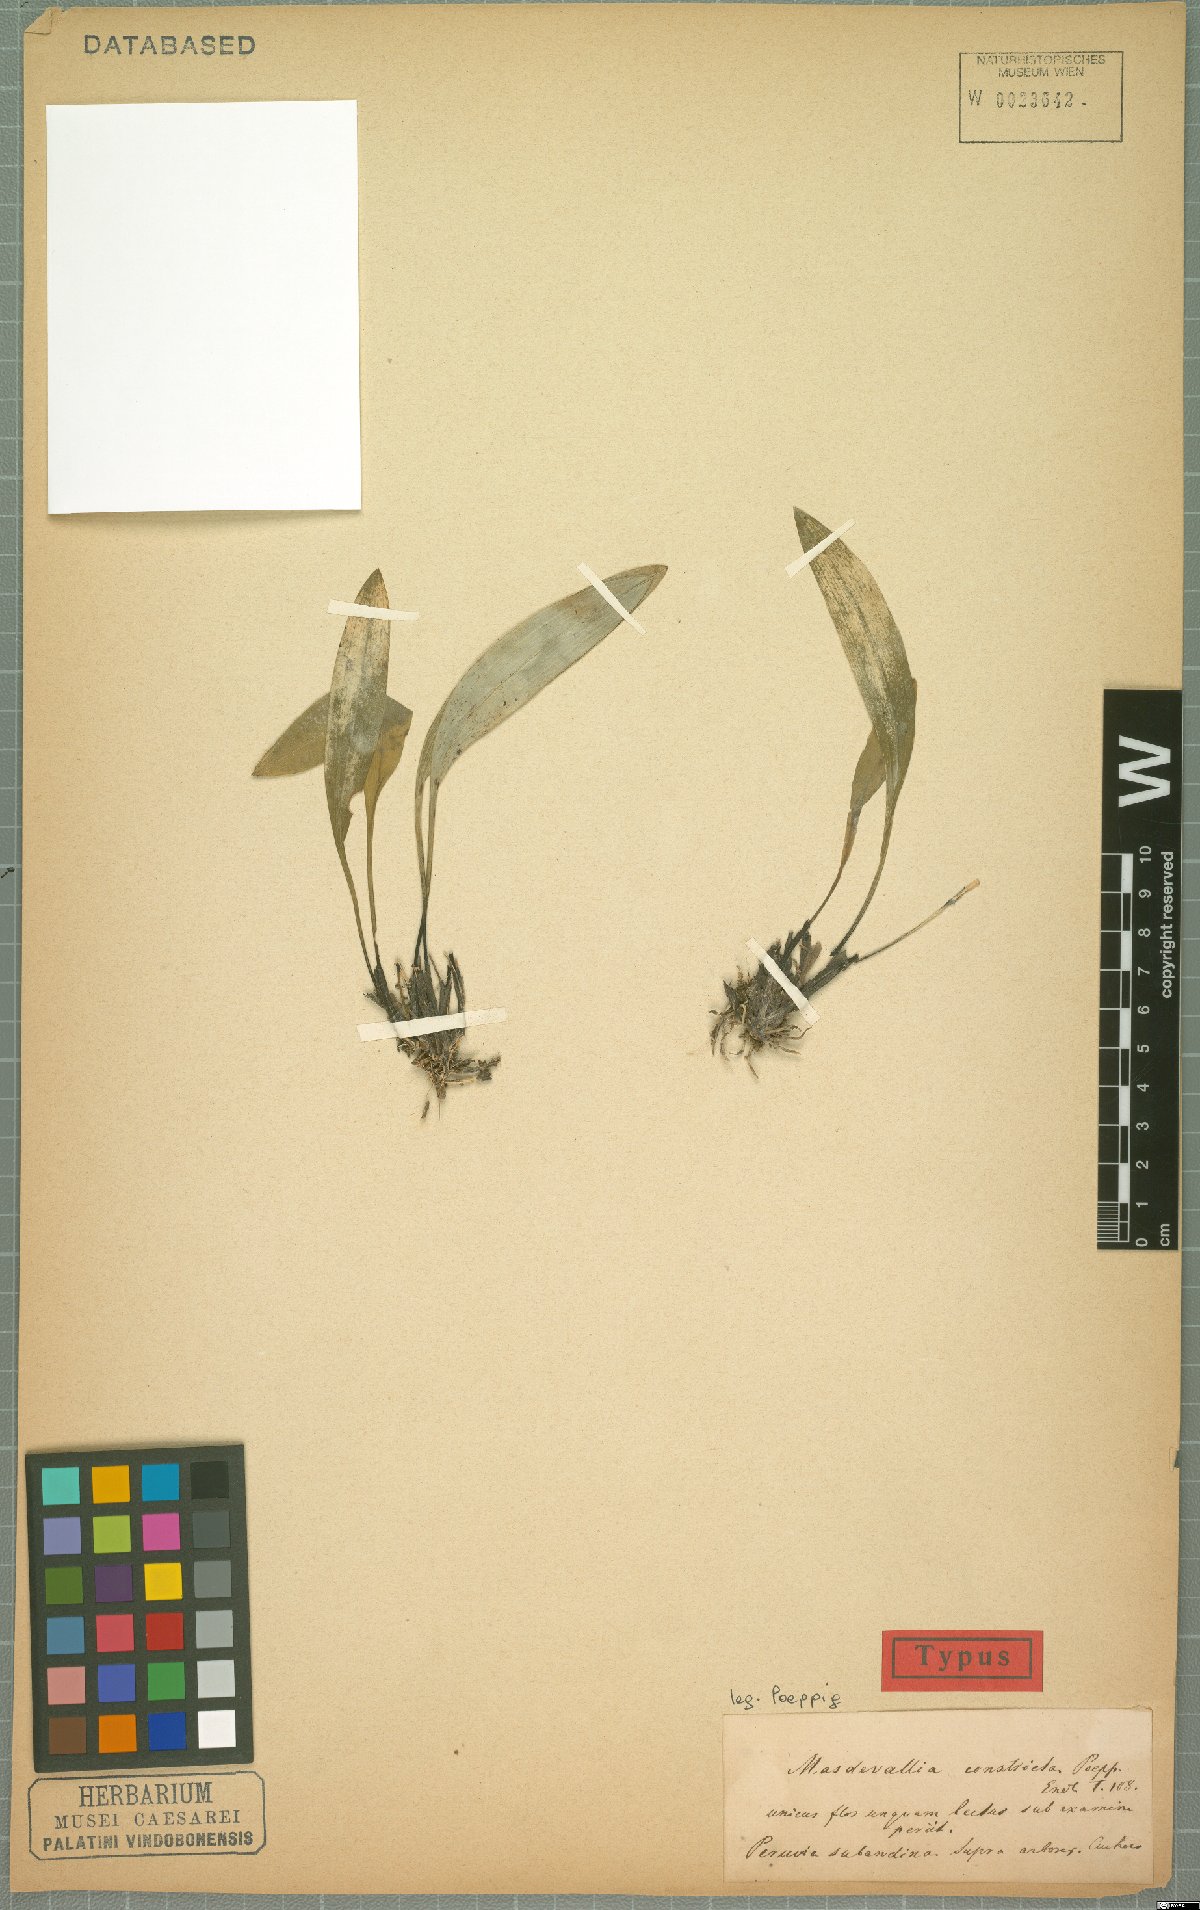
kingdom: Plantae
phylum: Tracheophyta
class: Liliopsida
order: Asparagales
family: Orchidaceae
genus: Masdevallia
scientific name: Masdevallia constricta
